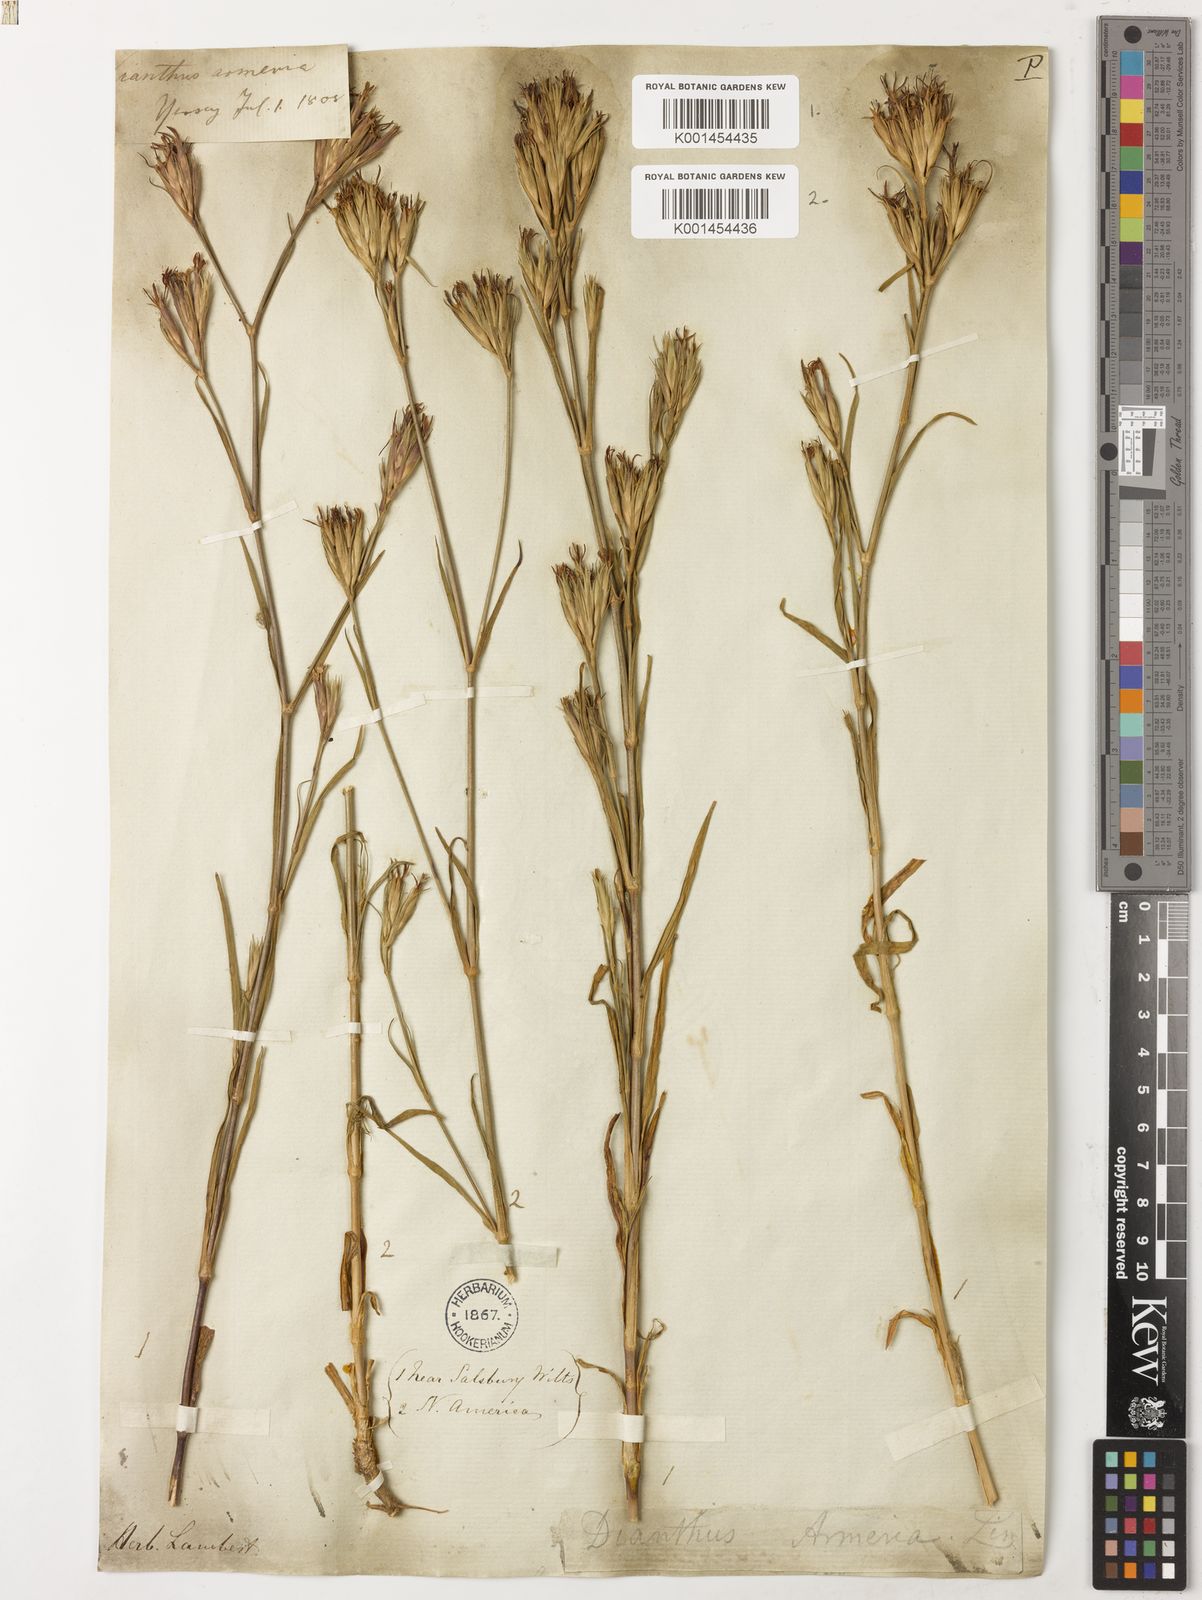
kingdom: Plantae
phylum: Tracheophyta
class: Magnoliopsida
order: Caryophyllales
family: Caryophyllaceae
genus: Dianthus
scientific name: Dianthus armeria
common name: Deptford pink
